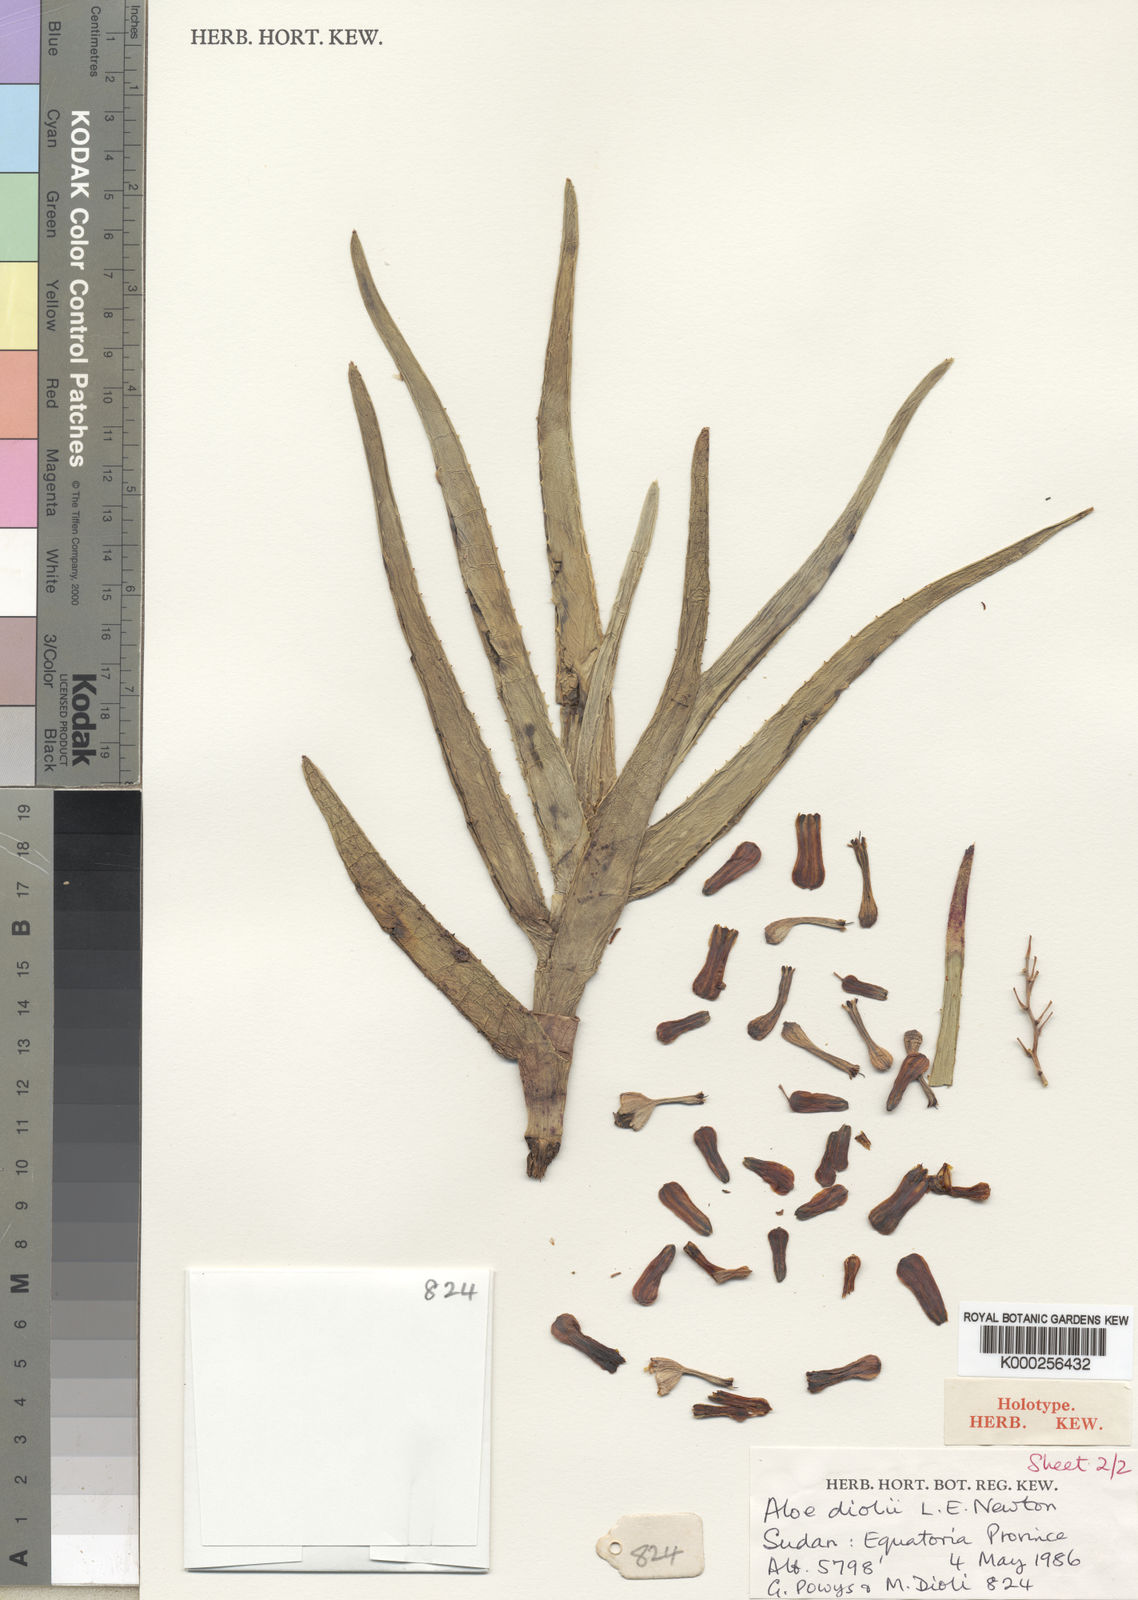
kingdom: Plantae
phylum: Tracheophyta
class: Liliopsida
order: Asparagales
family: Asphodelaceae
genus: Aloe
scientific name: Aloe diolii
